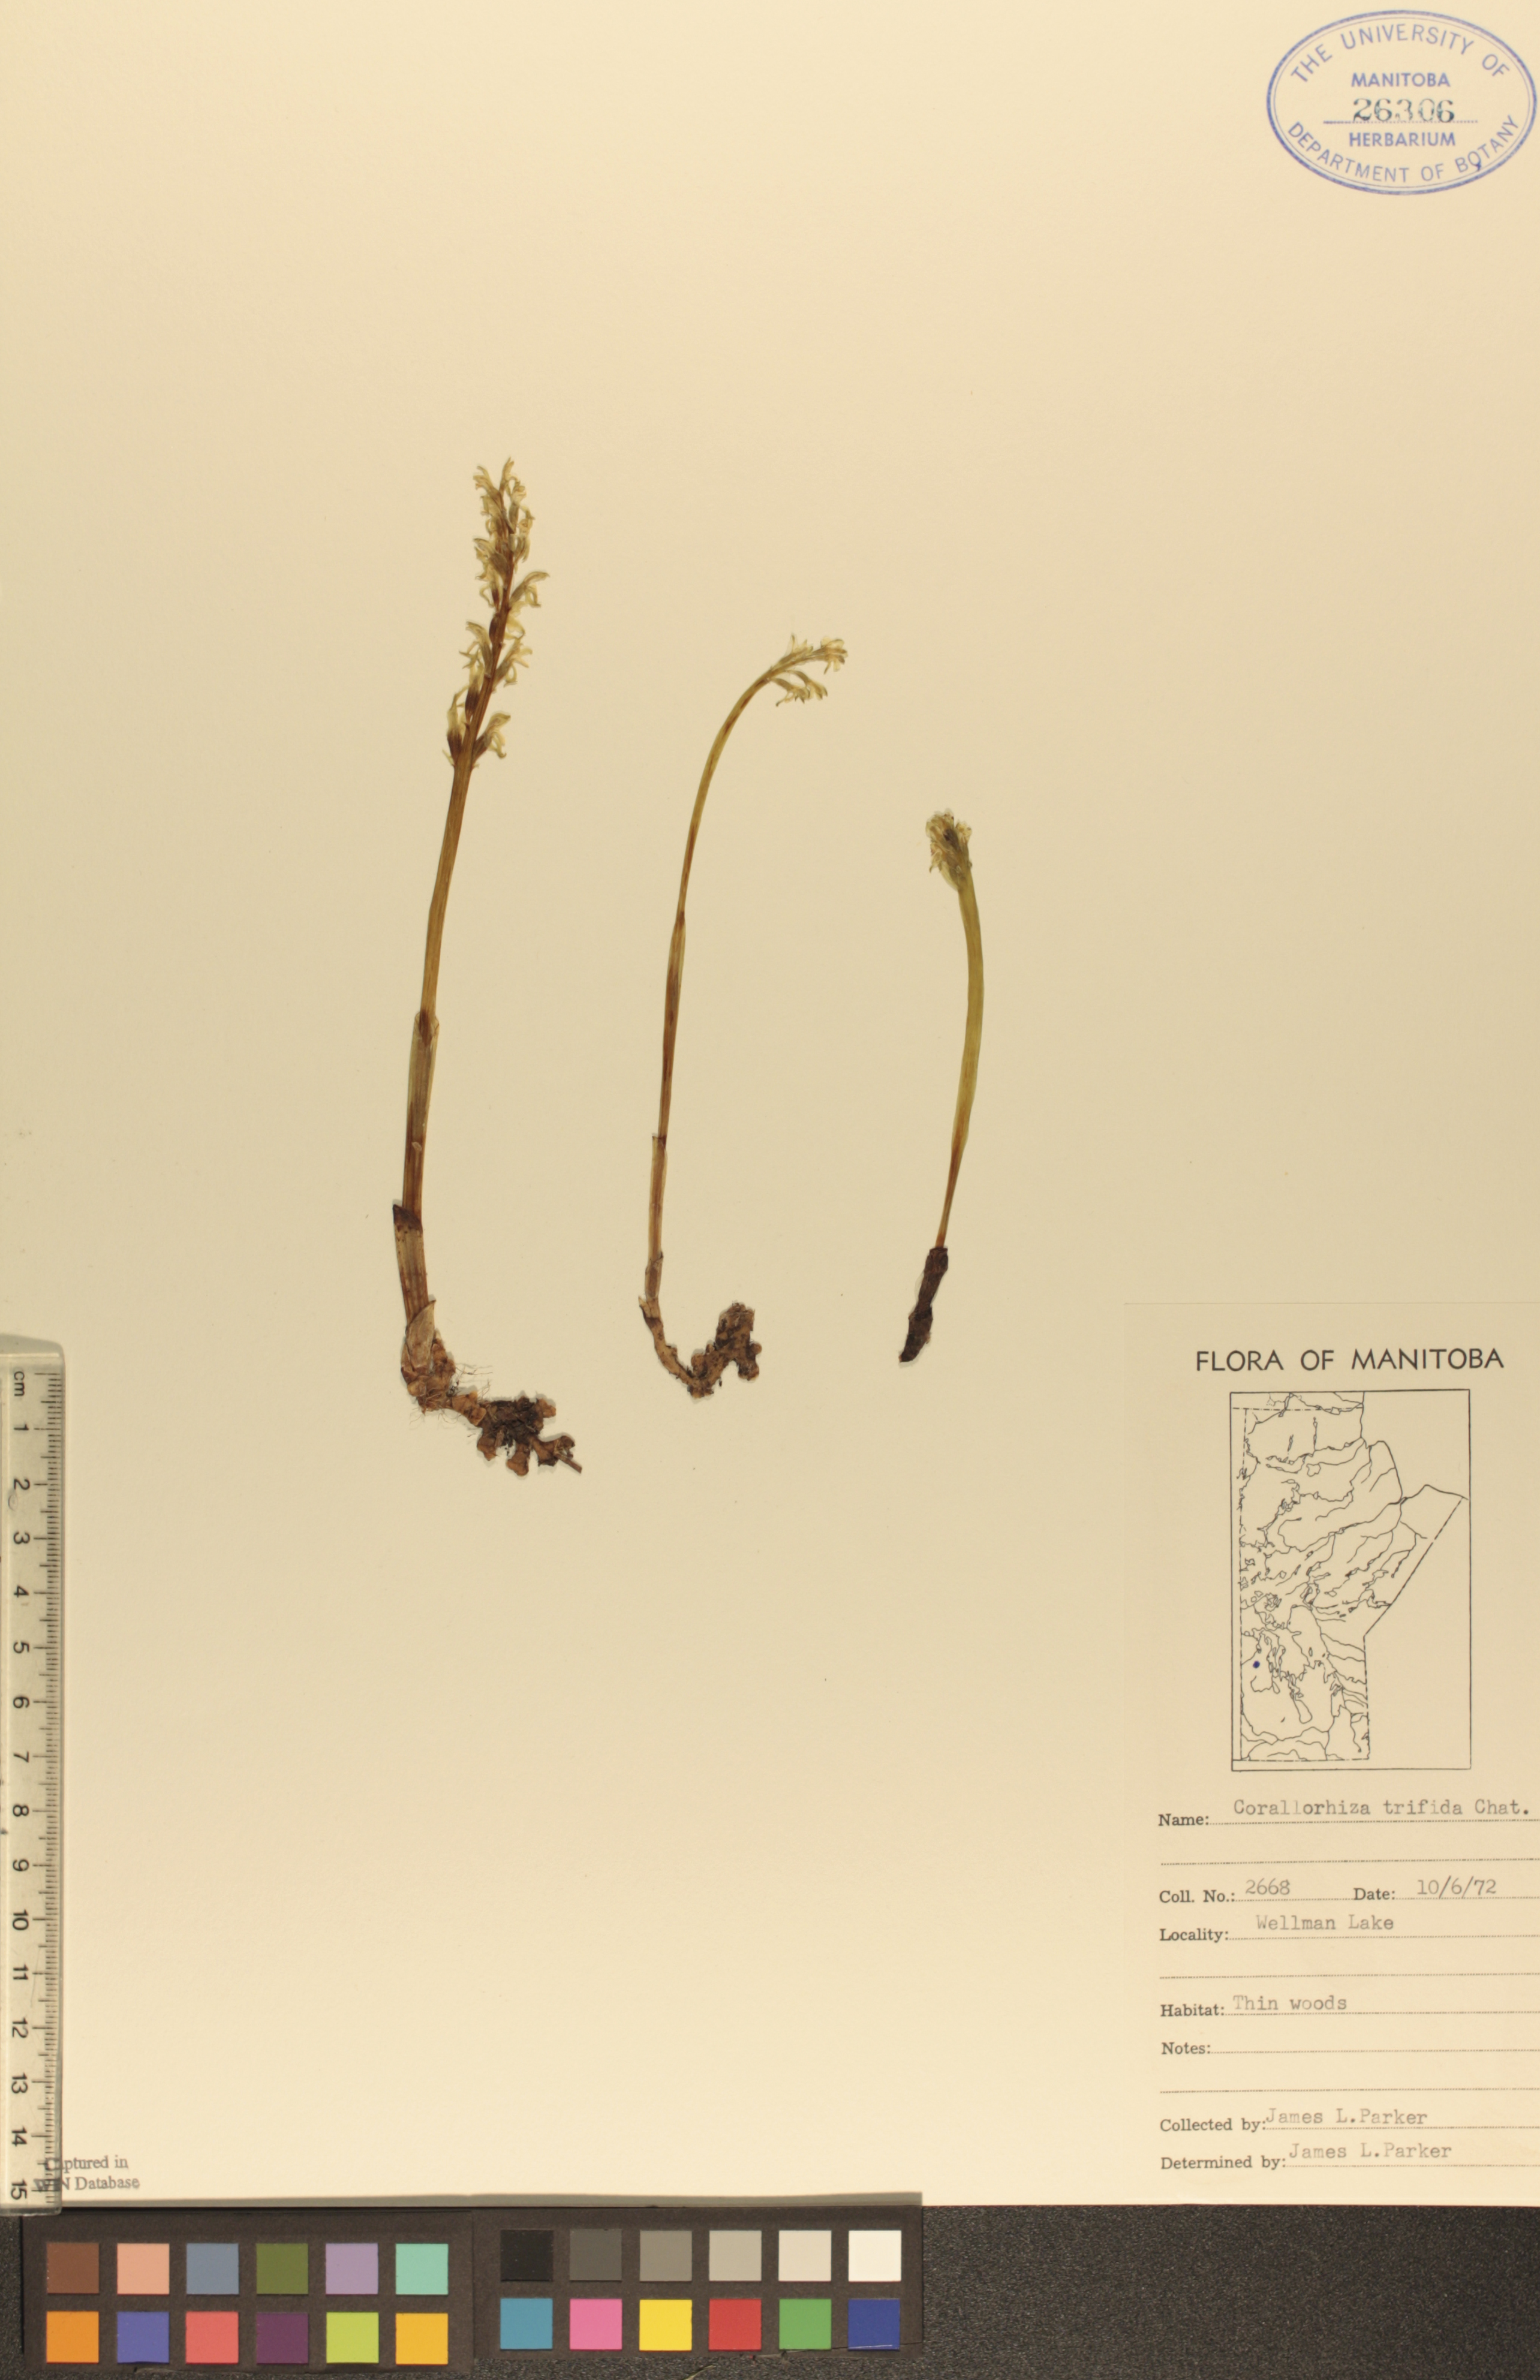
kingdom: Plantae
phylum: Tracheophyta
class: Liliopsida
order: Asparagales
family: Orchidaceae
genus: Corallorhiza
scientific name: Corallorhiza trifida
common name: Yellow coralroot
